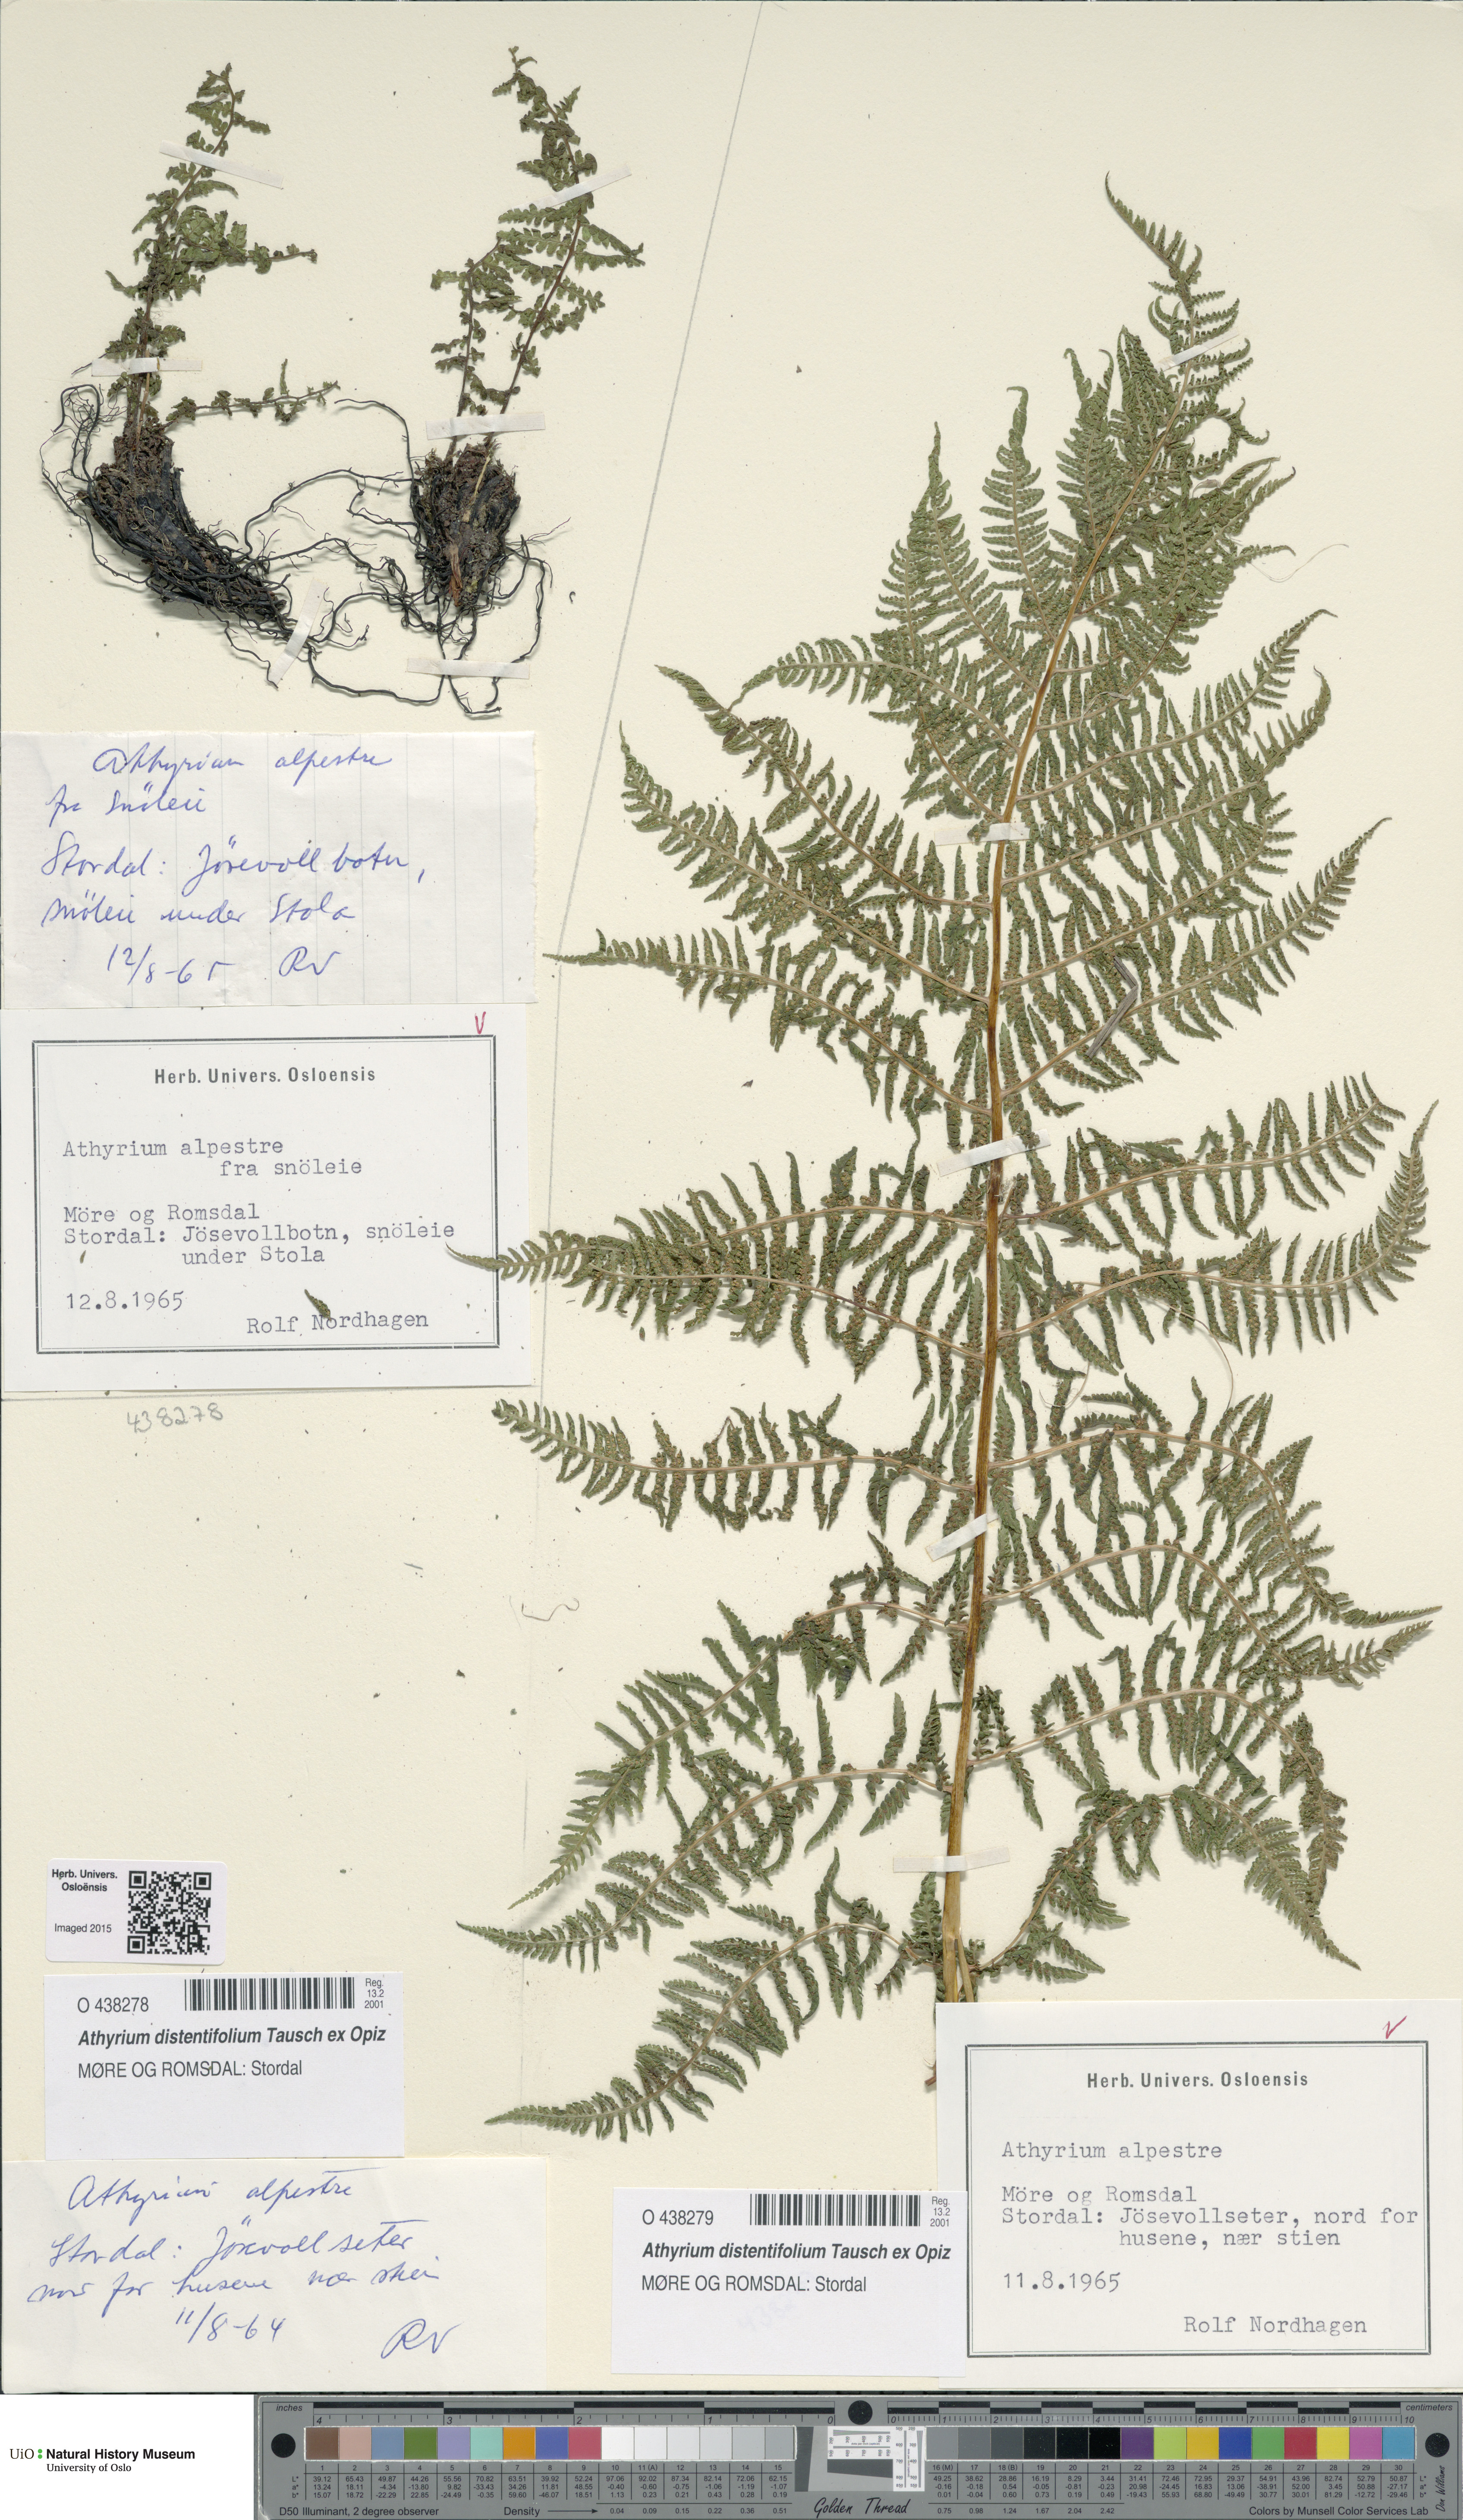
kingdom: Plantae
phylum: Tracheophyta
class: Polypodiopsida
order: Polypodiales
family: Athyriaceae
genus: Pseudathyrium
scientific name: Pseudathyrium alpestre
